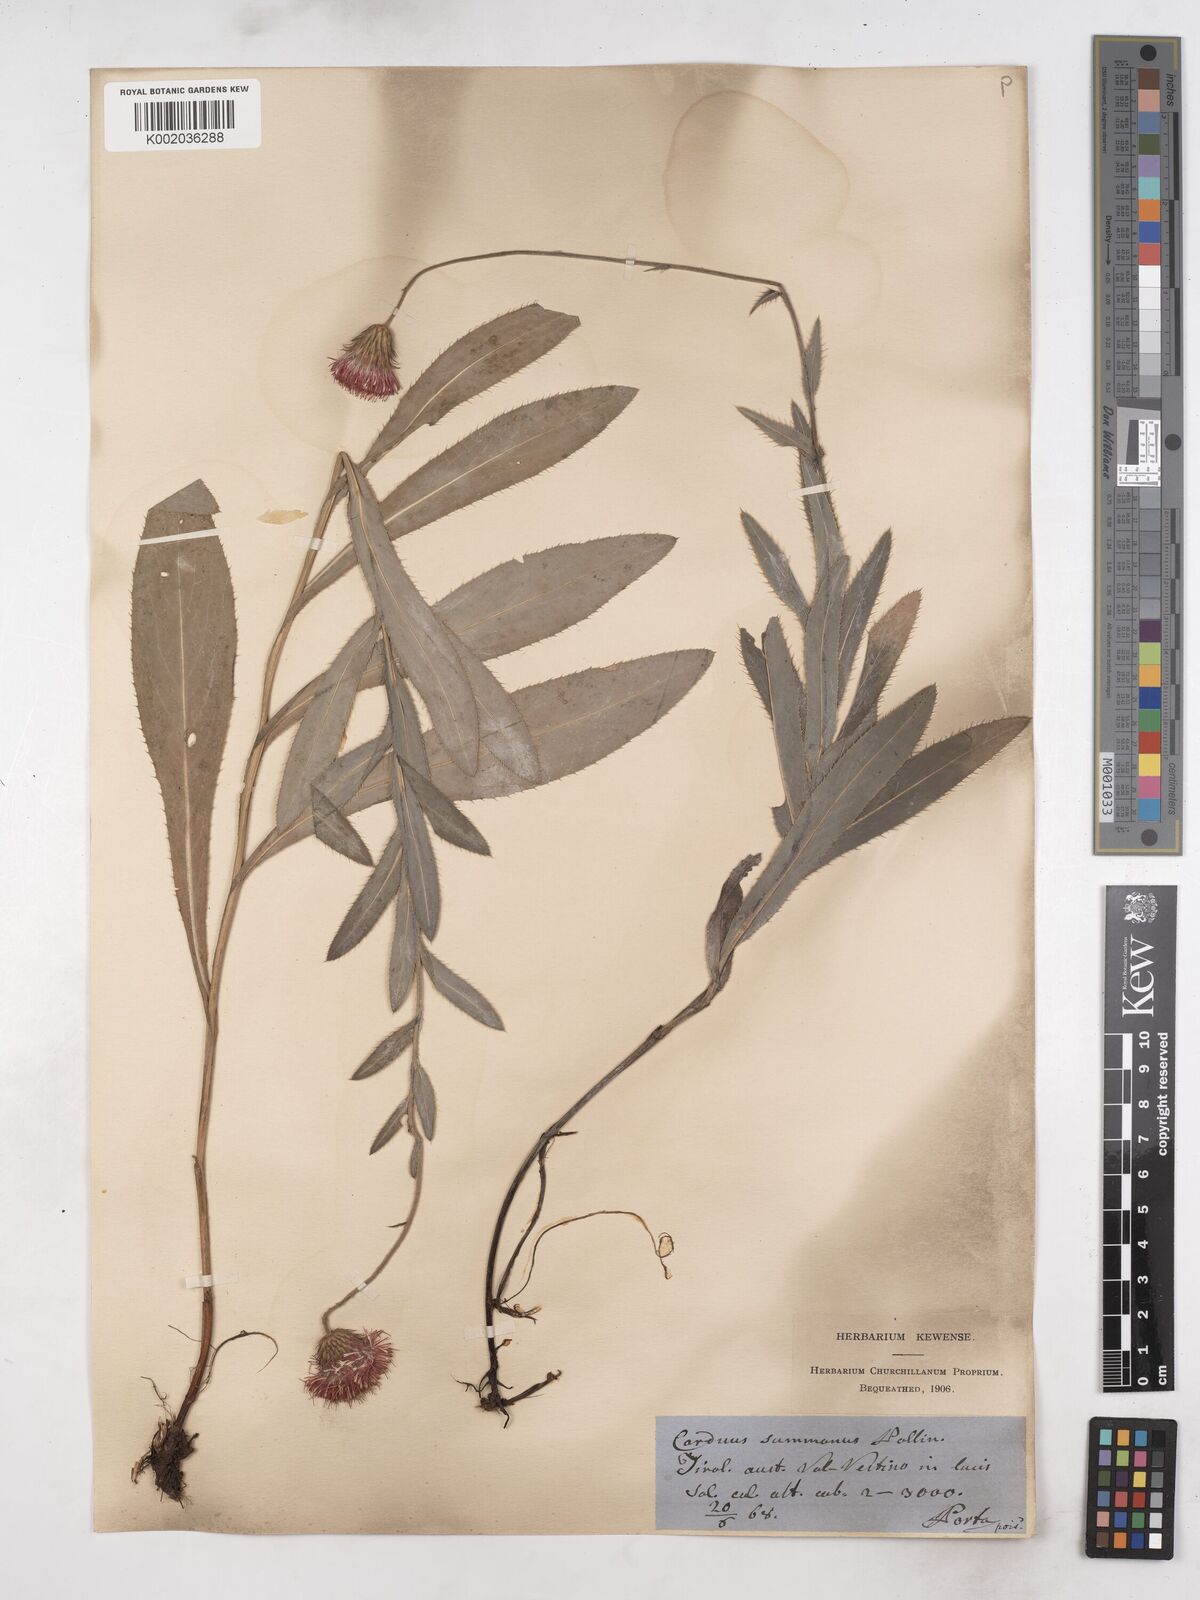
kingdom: Plantae
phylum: Tracheophyta
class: Magnoliopsida
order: Asterales
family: Asteraceae
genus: Carduus
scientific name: Carduus defloratus
